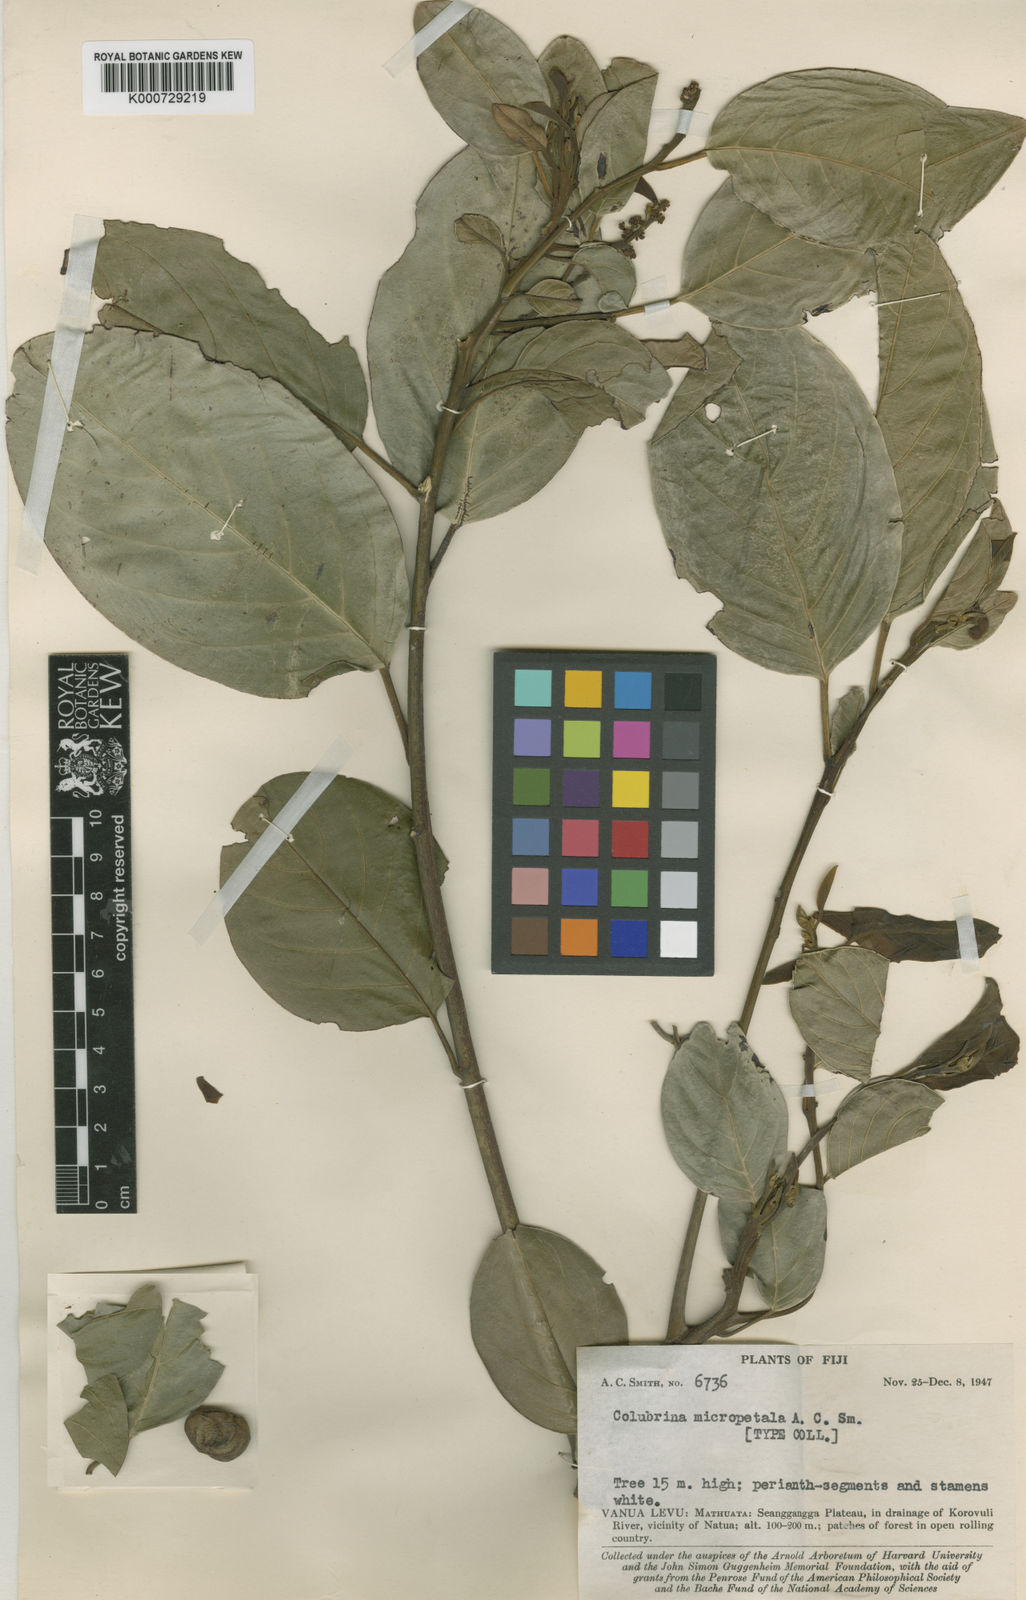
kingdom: Plantae
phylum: Tracheophyta
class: Magnoliopsida
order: Rosales
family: Rhamnaceae
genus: Emmenosperma
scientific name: Emmenosperma micropetalum
